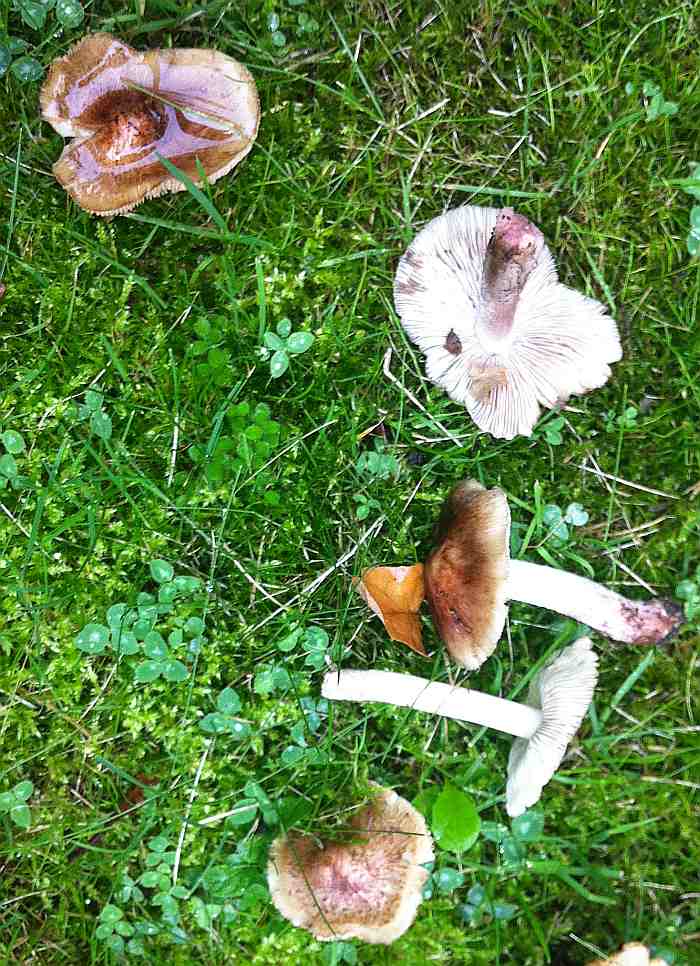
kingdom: Fungi
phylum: Basidiomycota
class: Agaricomycetes
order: Agaricales
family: Inocybaceae
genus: Inosperma
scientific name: Inosperma adaequatum
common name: vinrød trævlhat
